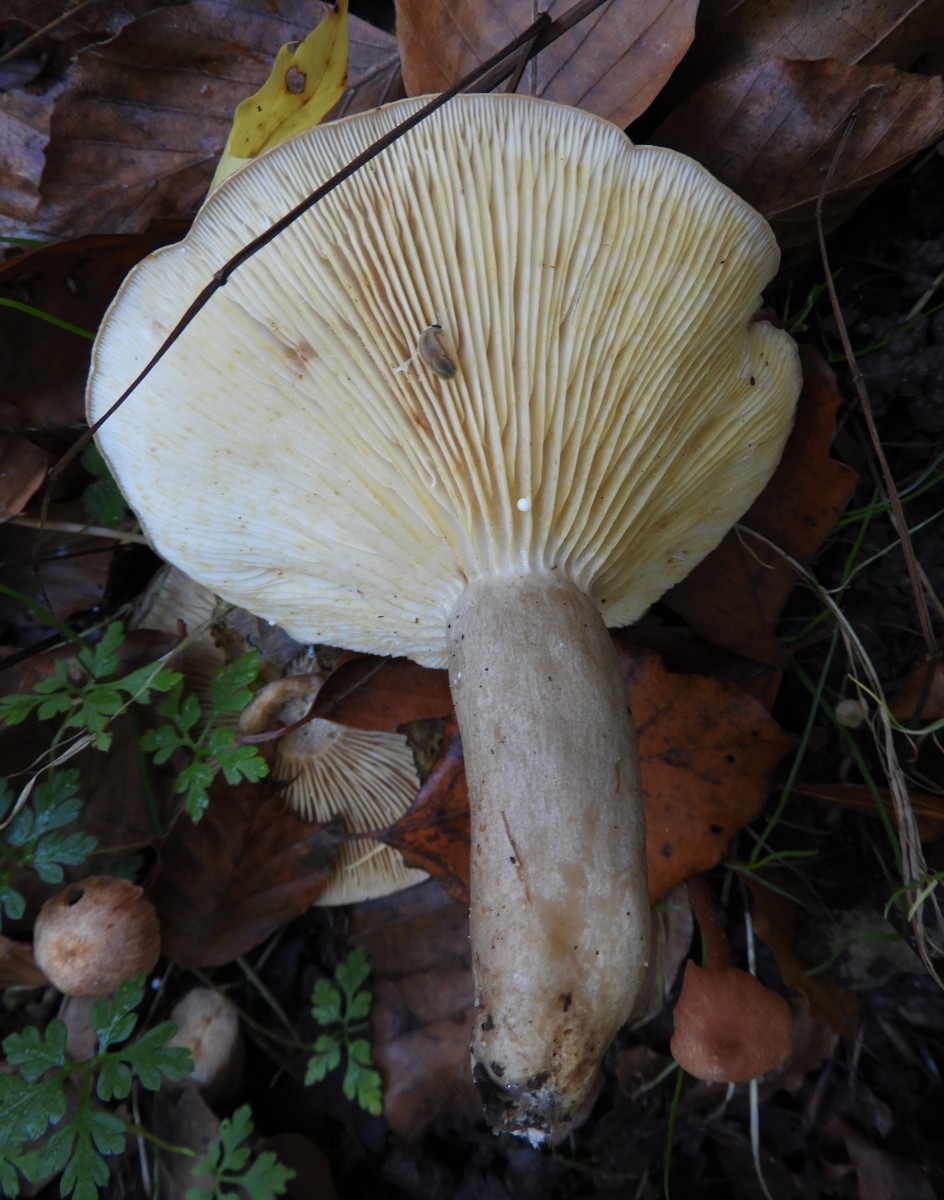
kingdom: Fungi
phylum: Basidiomycota
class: Agaricomycetes
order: Russulales
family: Russulaceae
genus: Lactarius
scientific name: Lactarius circellatus
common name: avnbøg-mælkehat
